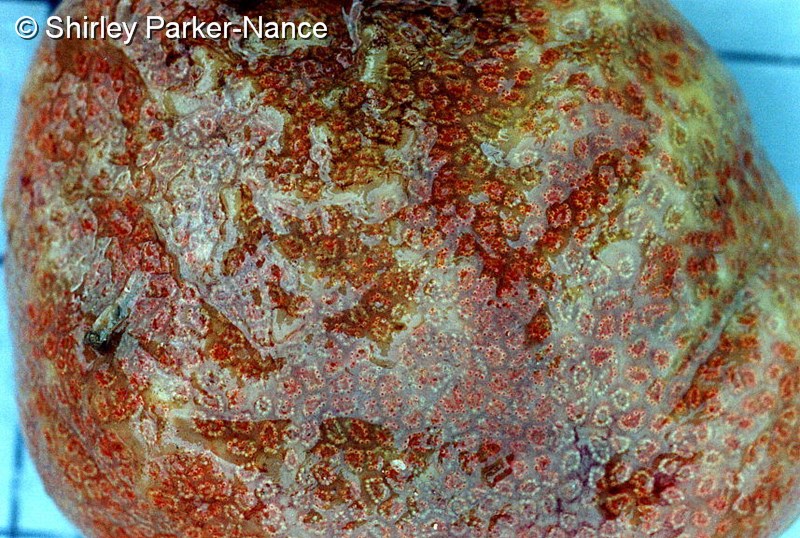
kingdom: Animalia
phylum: Chordata
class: Ascidiacea
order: Aplousobranchia
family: Polyclinidae
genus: Synoicum
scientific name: Synoicum
